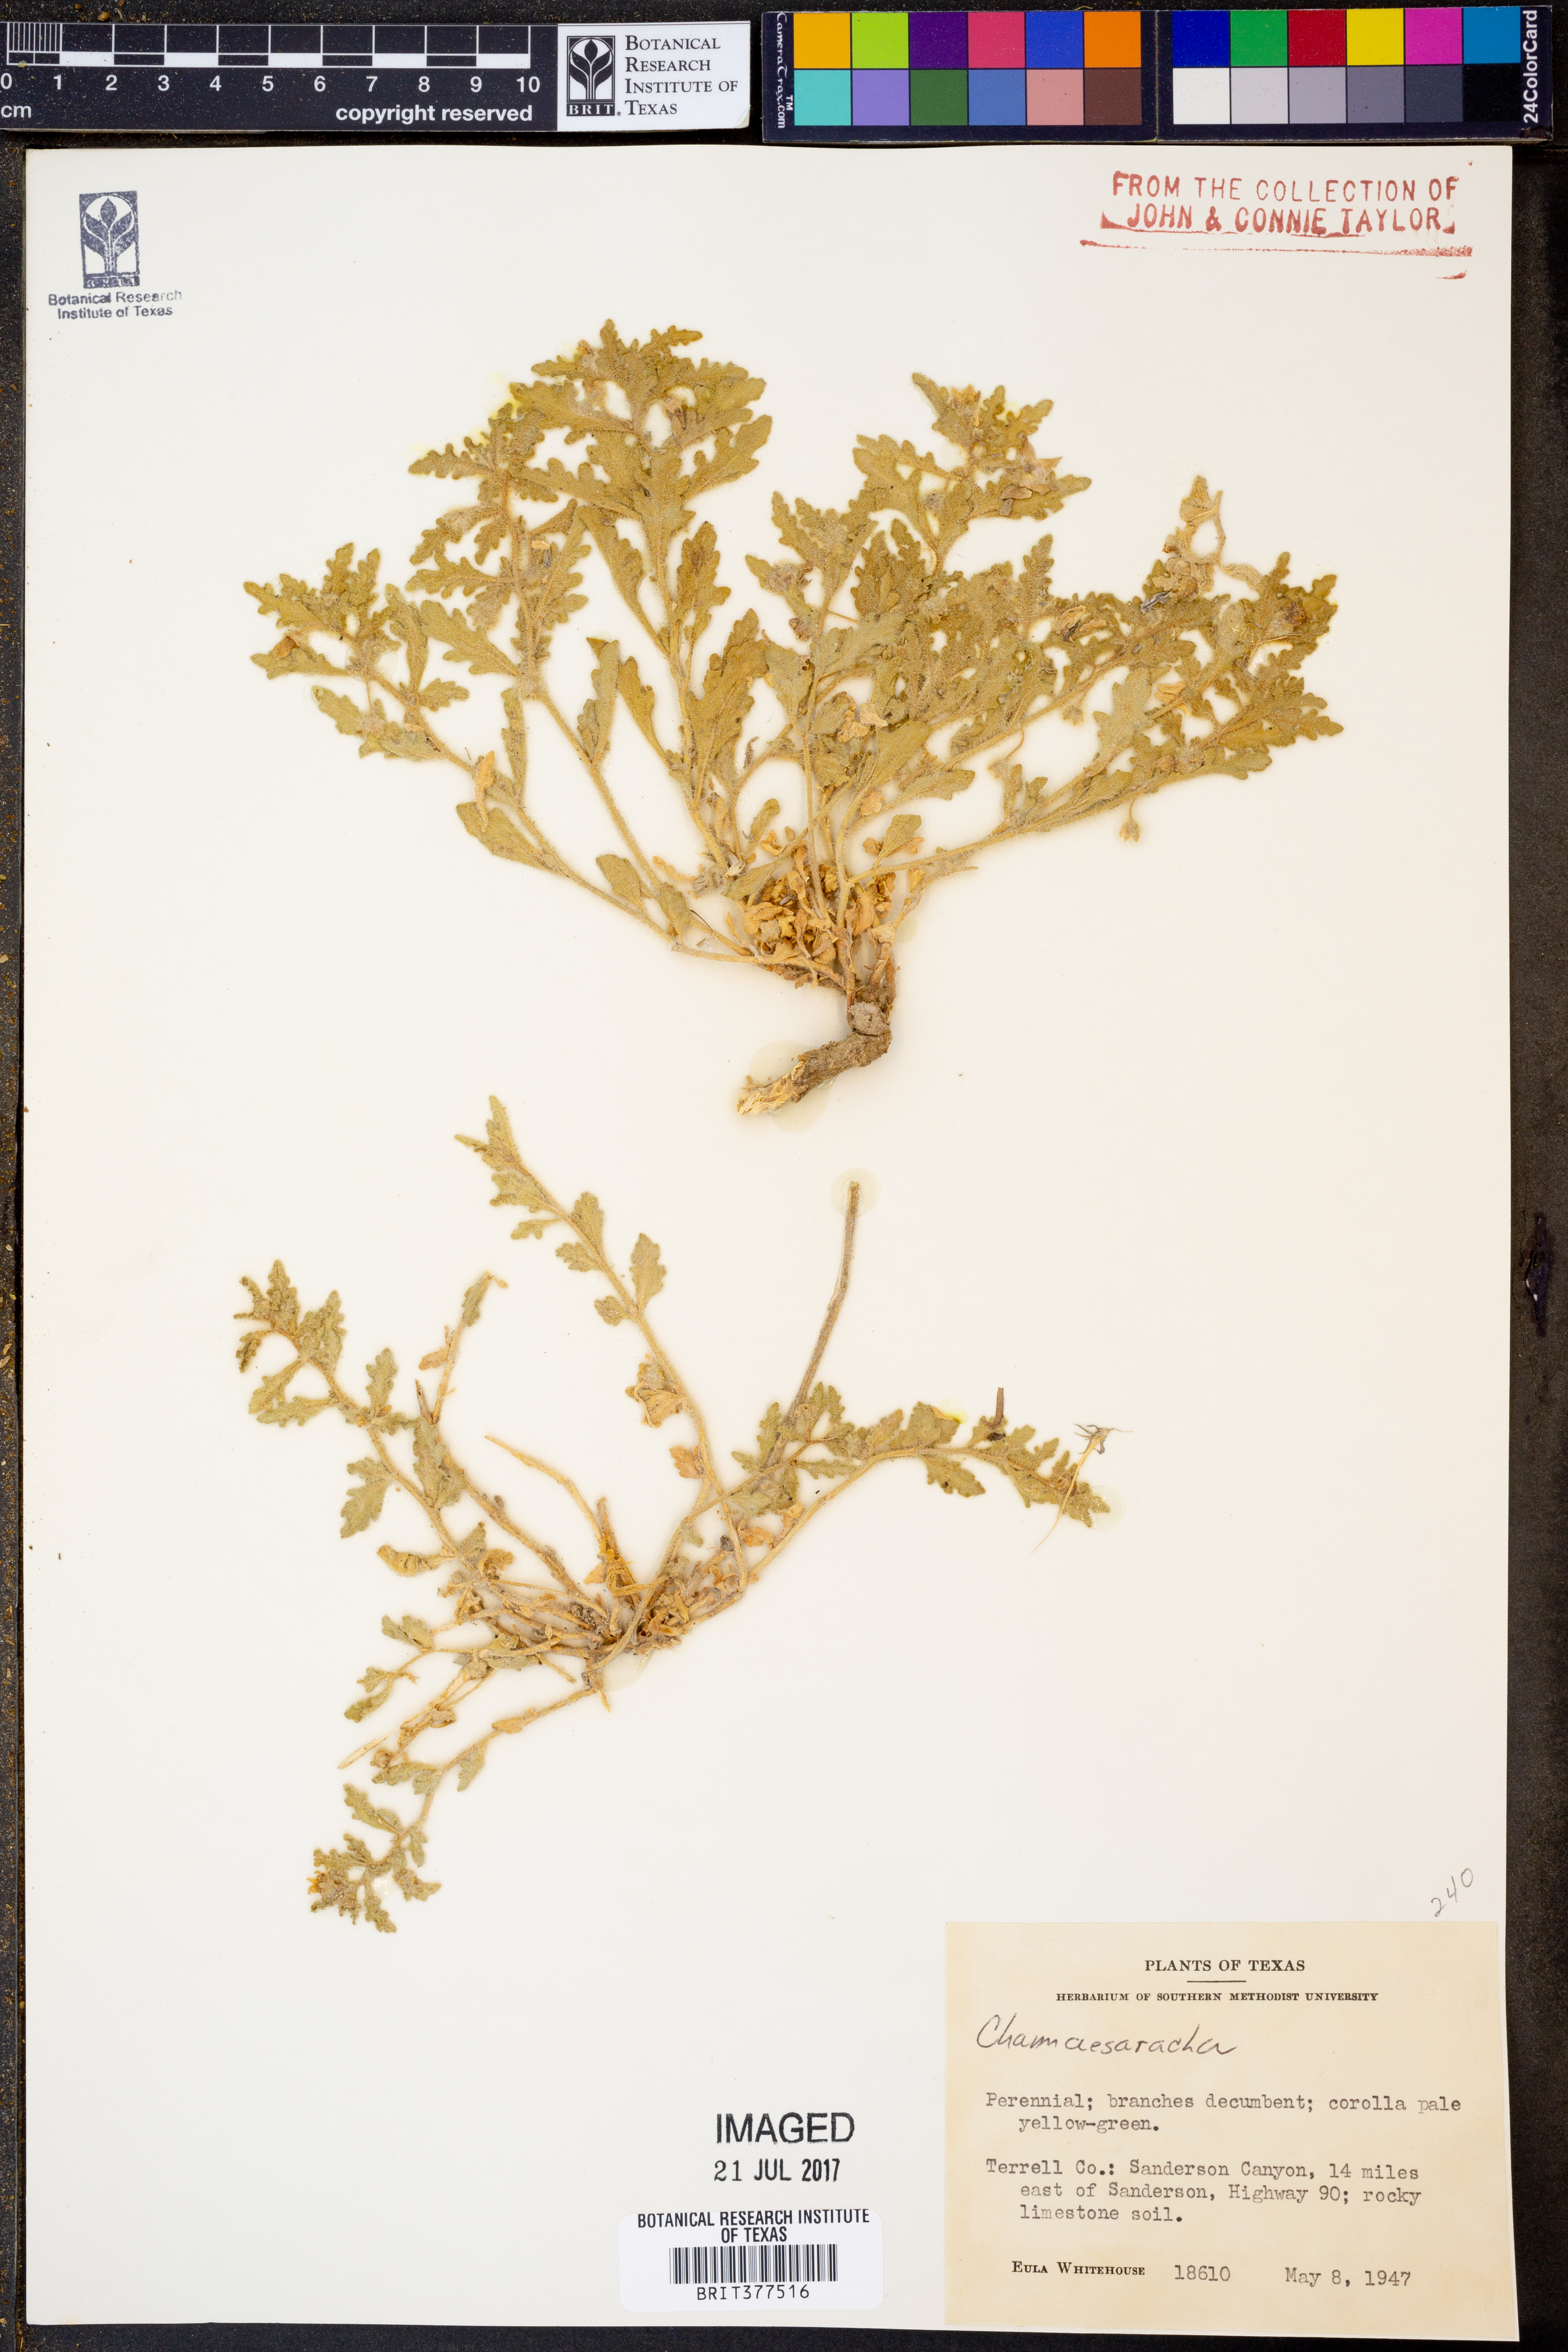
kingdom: Plantae
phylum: Tracheophyta
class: Magnoliopsida
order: Solanales
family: Solanaceae
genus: Chamaesaracha
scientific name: Chamaesaracha
